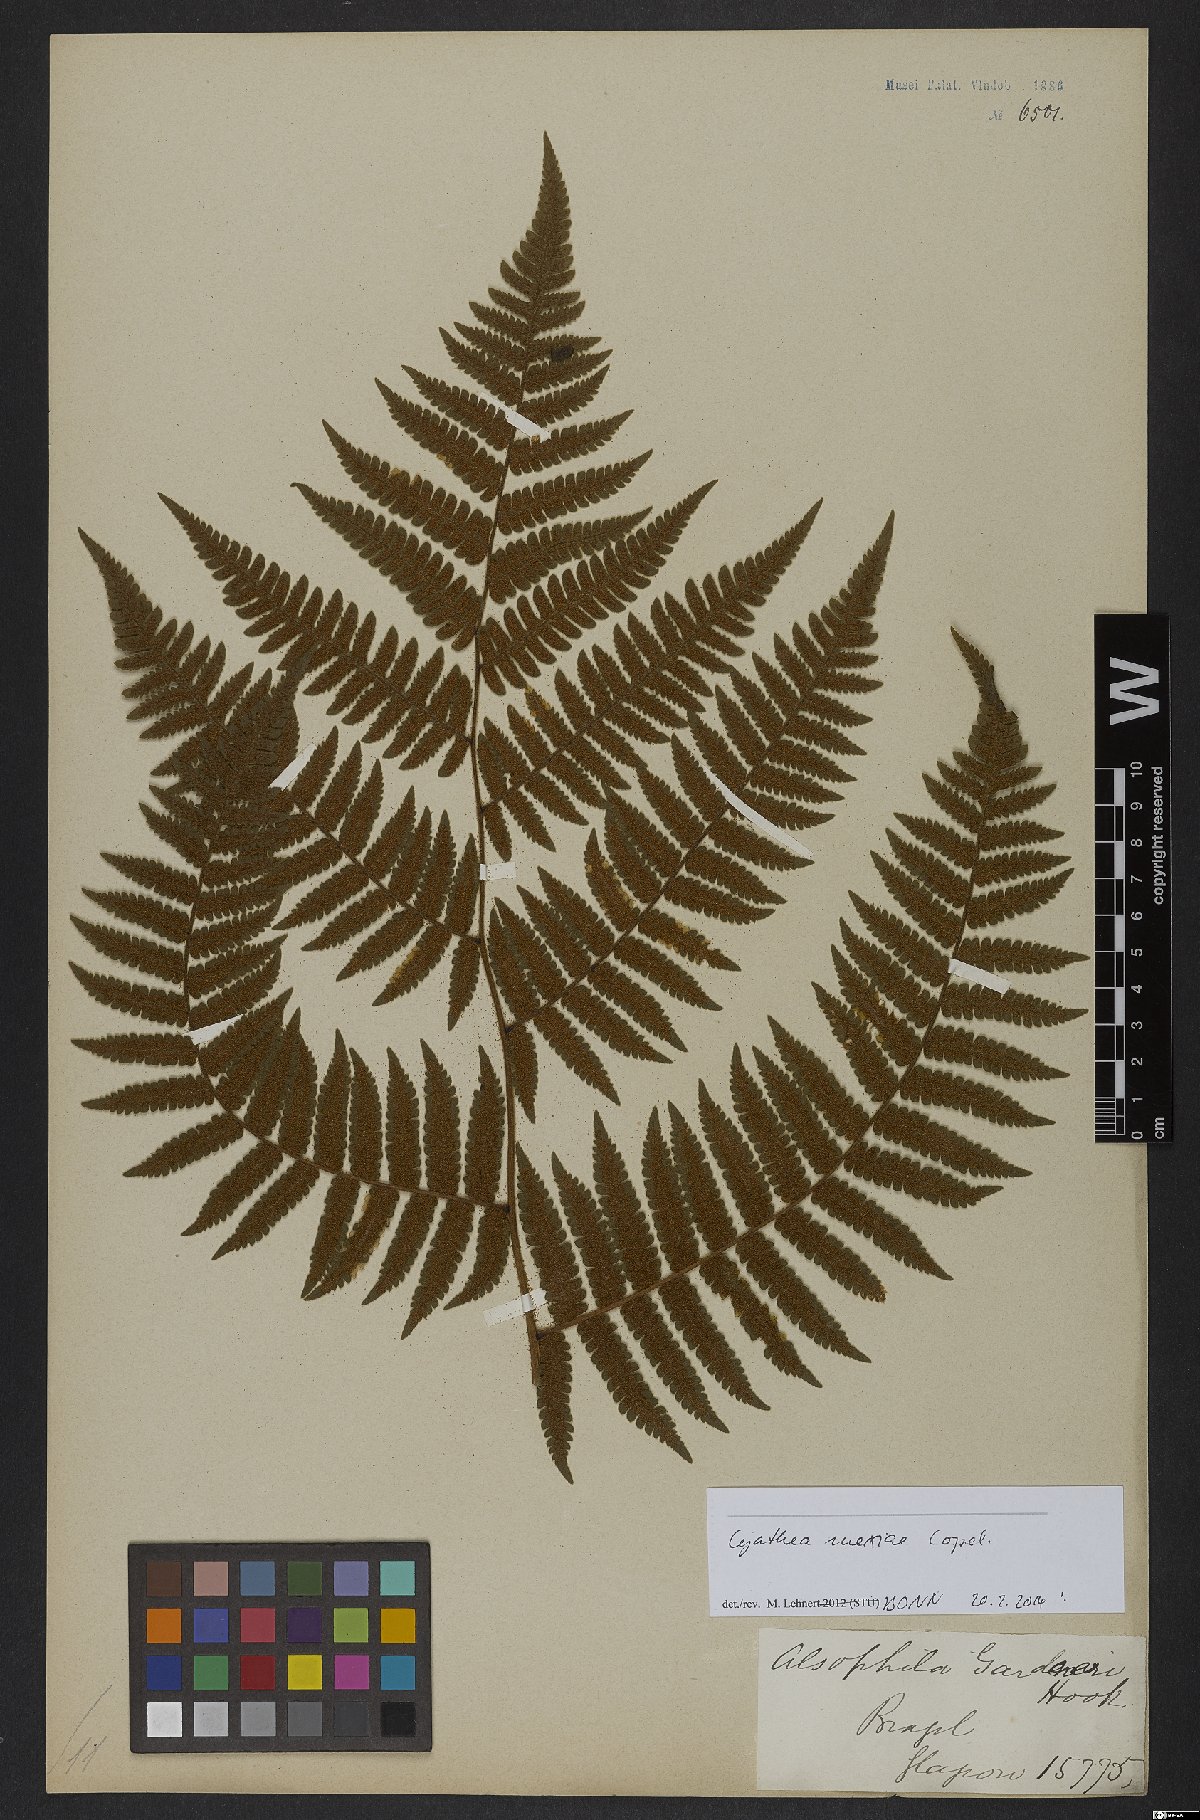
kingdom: Plantae
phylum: Tracheophyta
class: Polypodiopsida
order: Cyatheales
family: Cyatheaceae
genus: Cyathea
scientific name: Cyathea mexiae
